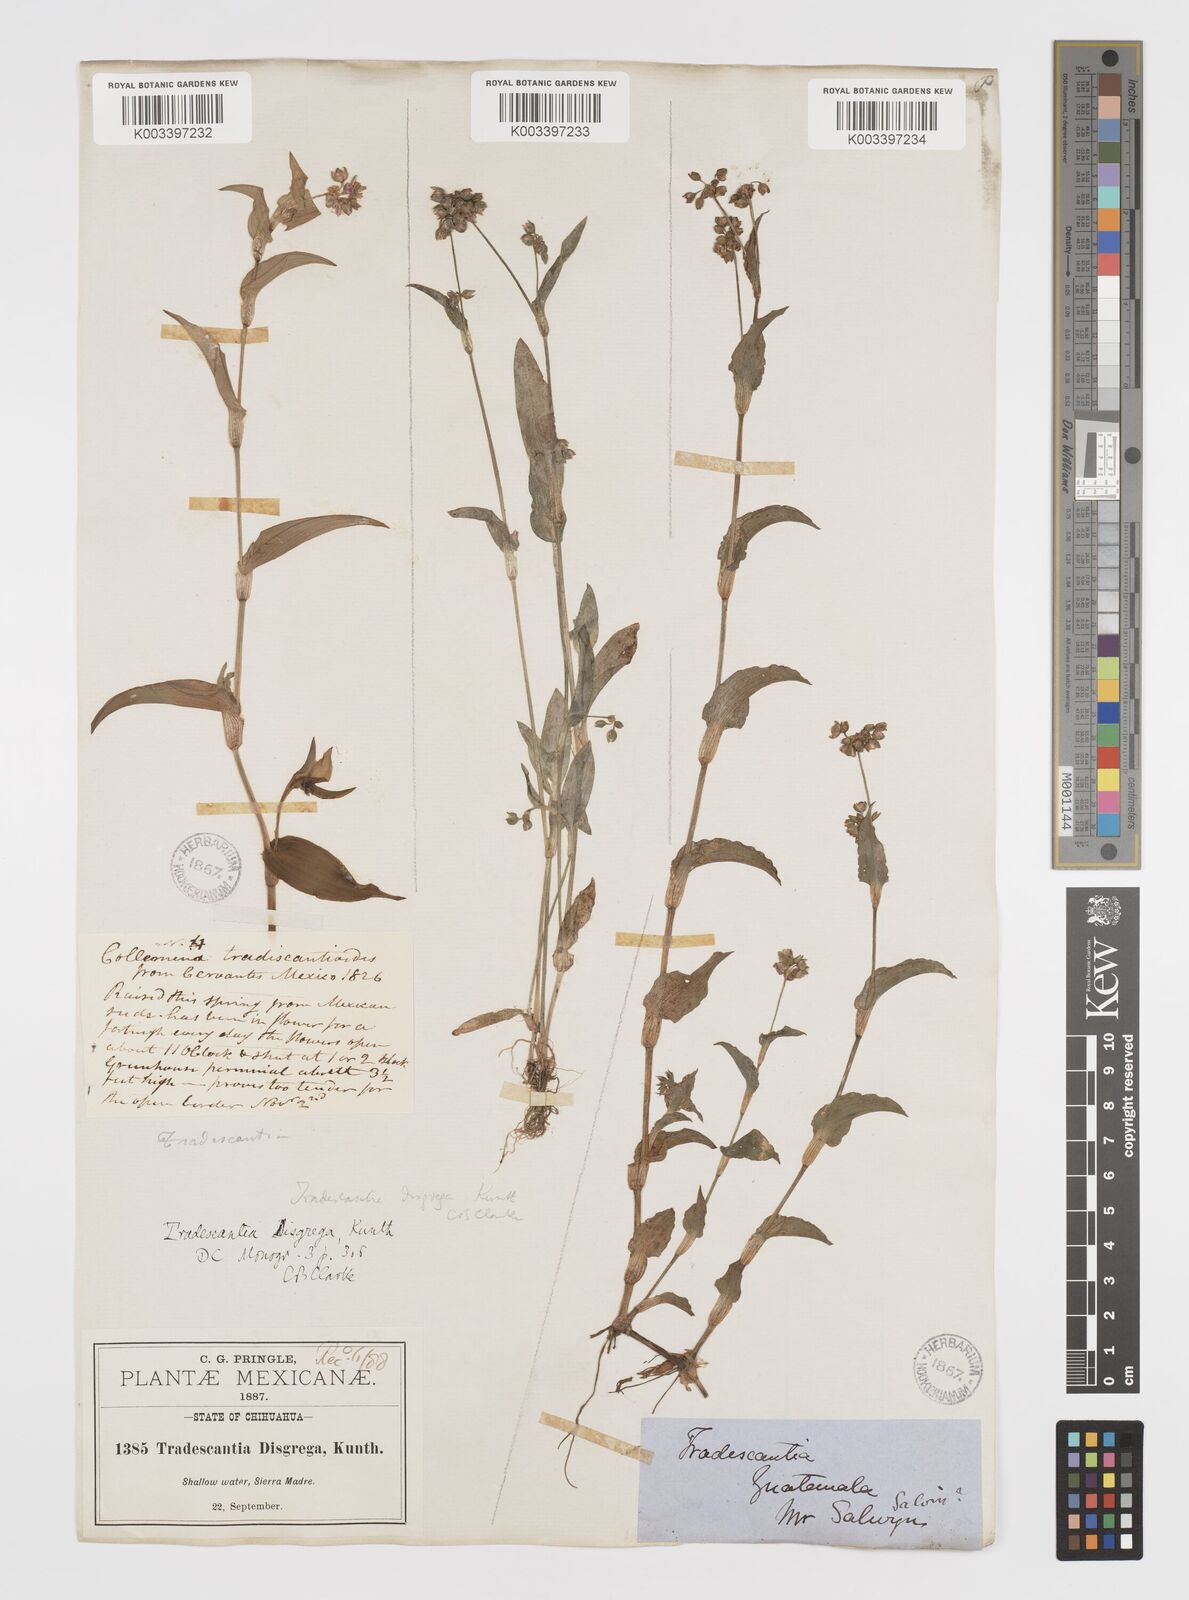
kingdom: Plantae
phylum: Tracheophyta
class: Liliopsida
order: Commelinales
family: Commelinaceae
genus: Callisia
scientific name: Callisia disgrega
